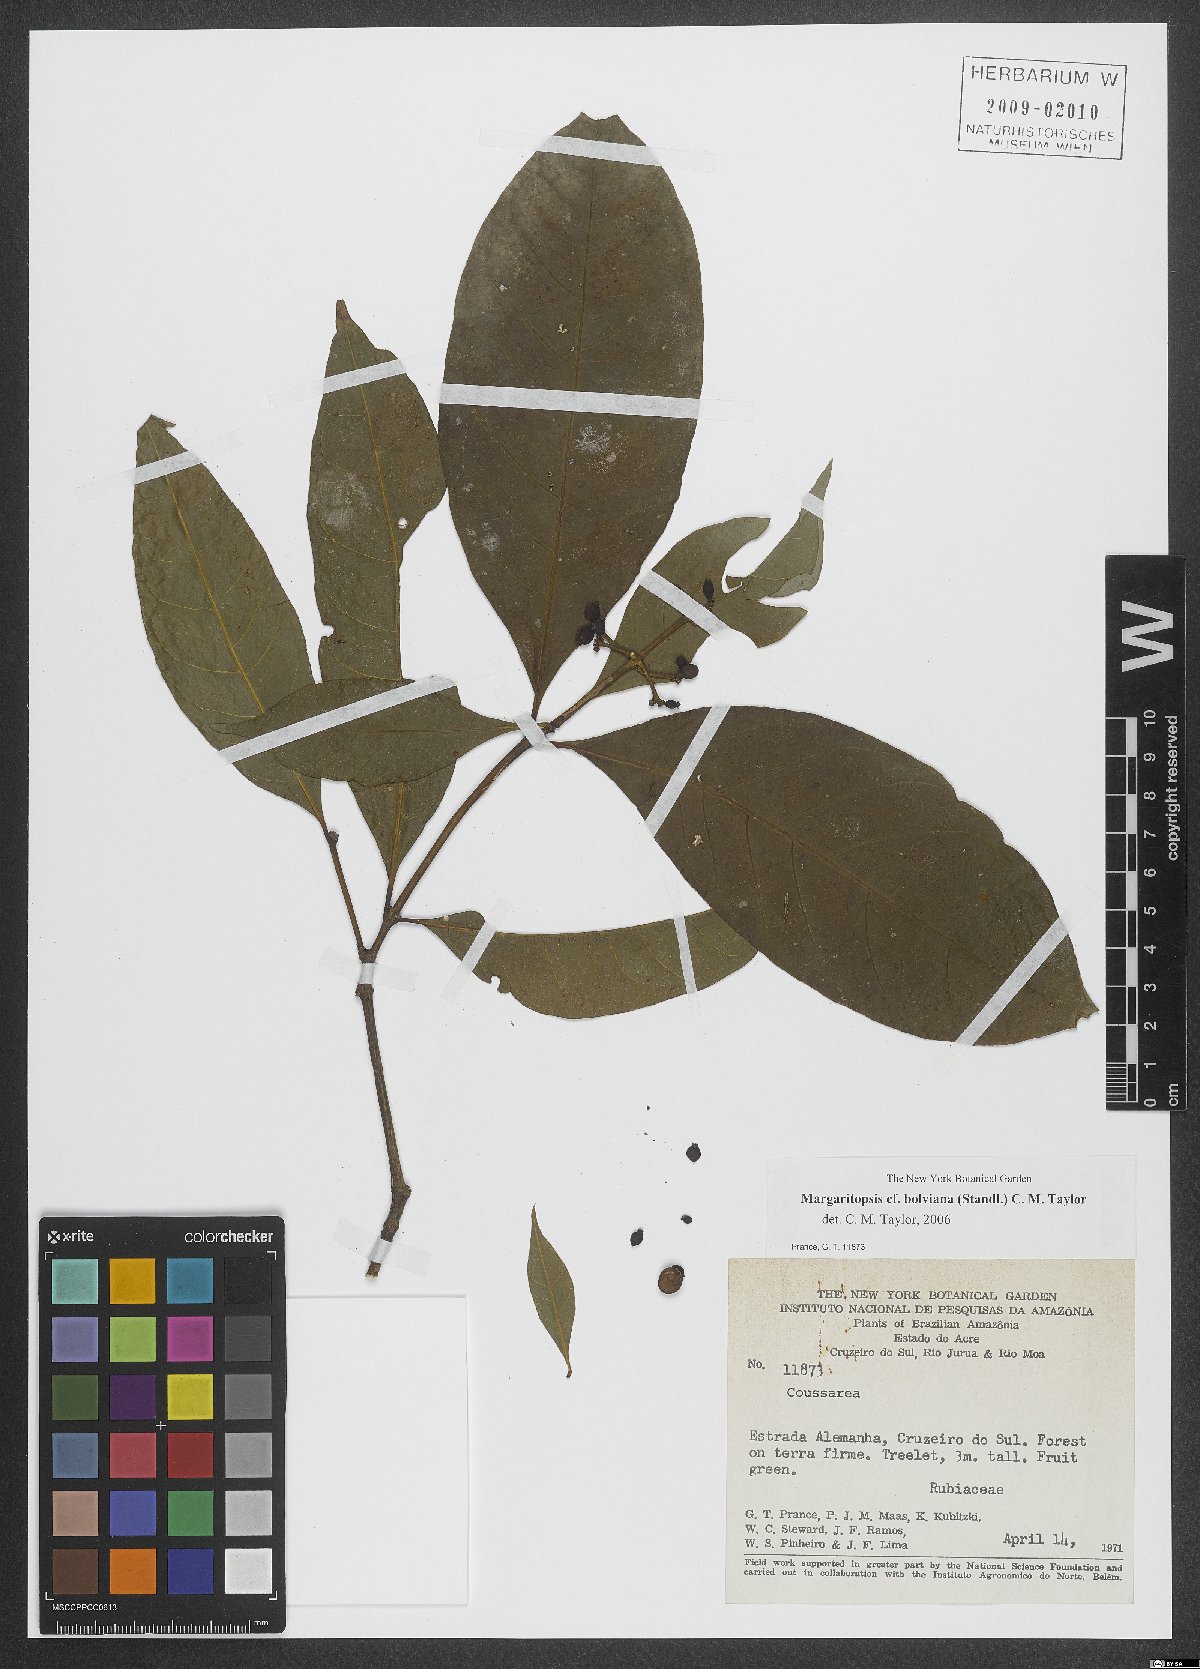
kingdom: Plantae
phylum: Tracheophyta
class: Magnoliopsida
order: Gentianales
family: Rubiaceae
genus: Eumachia
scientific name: Eumachia boliviana
